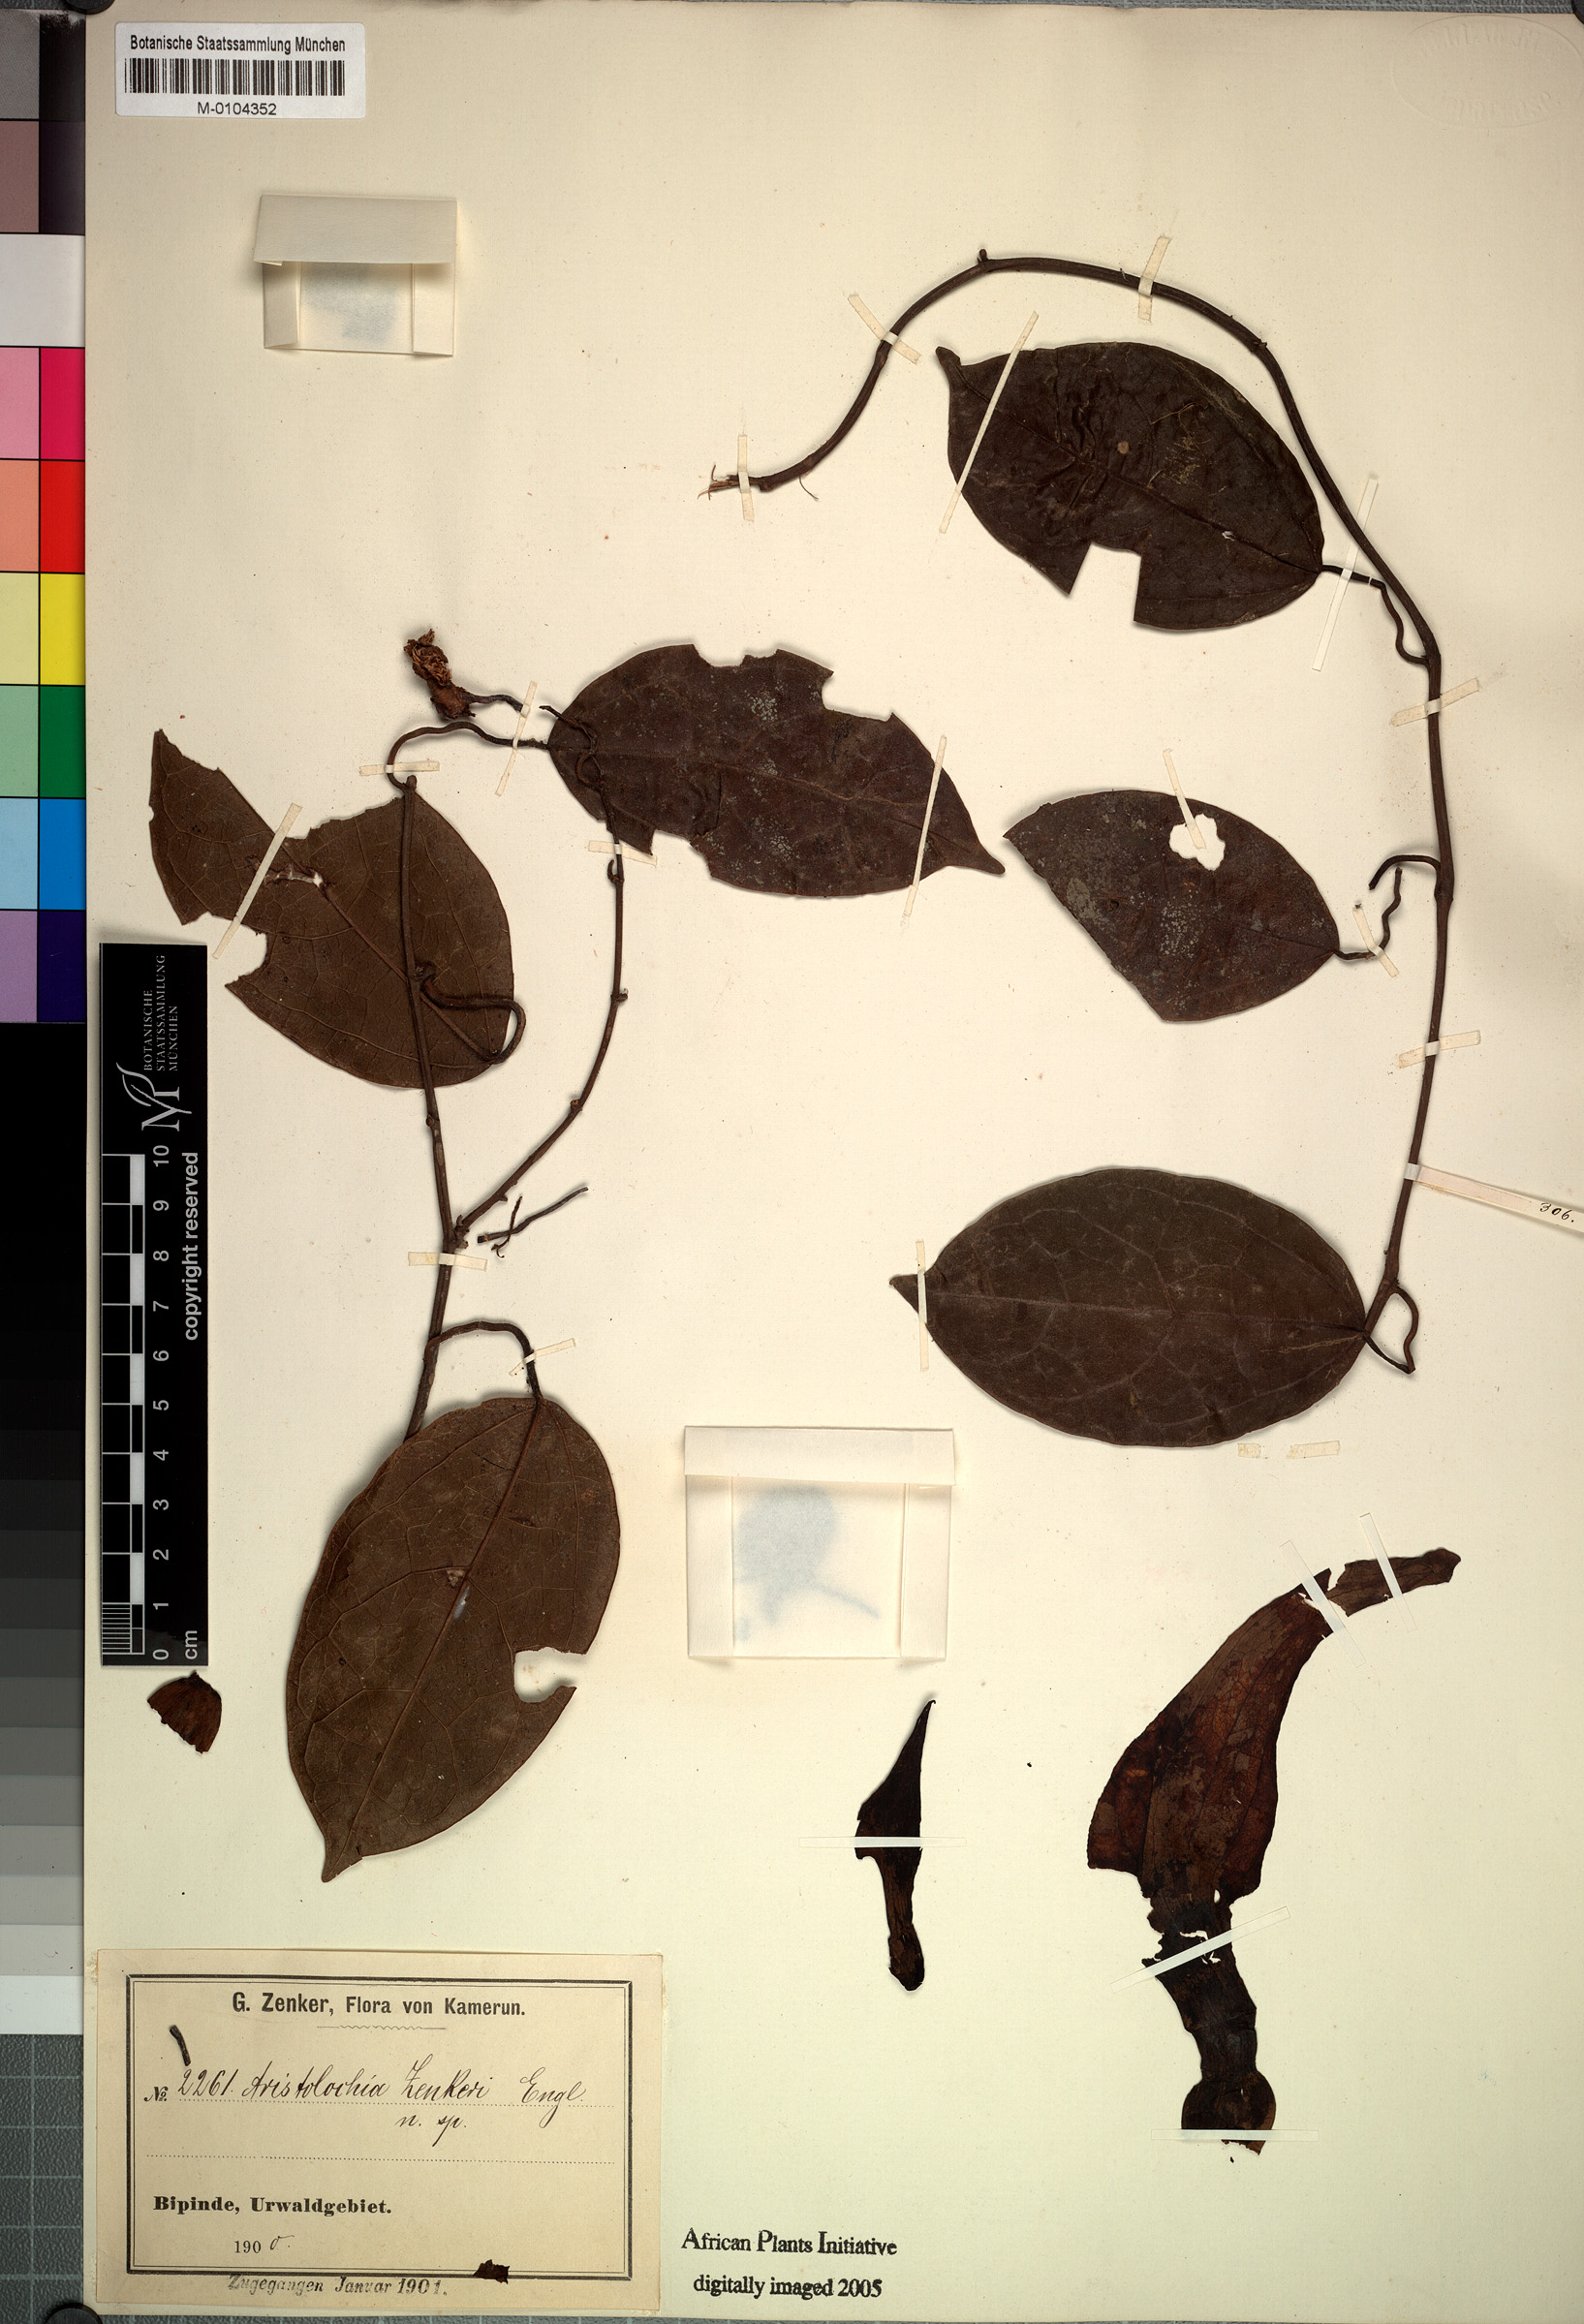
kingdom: Plantae
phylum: Tracheophyta
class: Magnoliopsida
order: Piperales
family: Aristolochiaceae
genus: Aristolochia
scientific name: Aristolochia zenkeri
